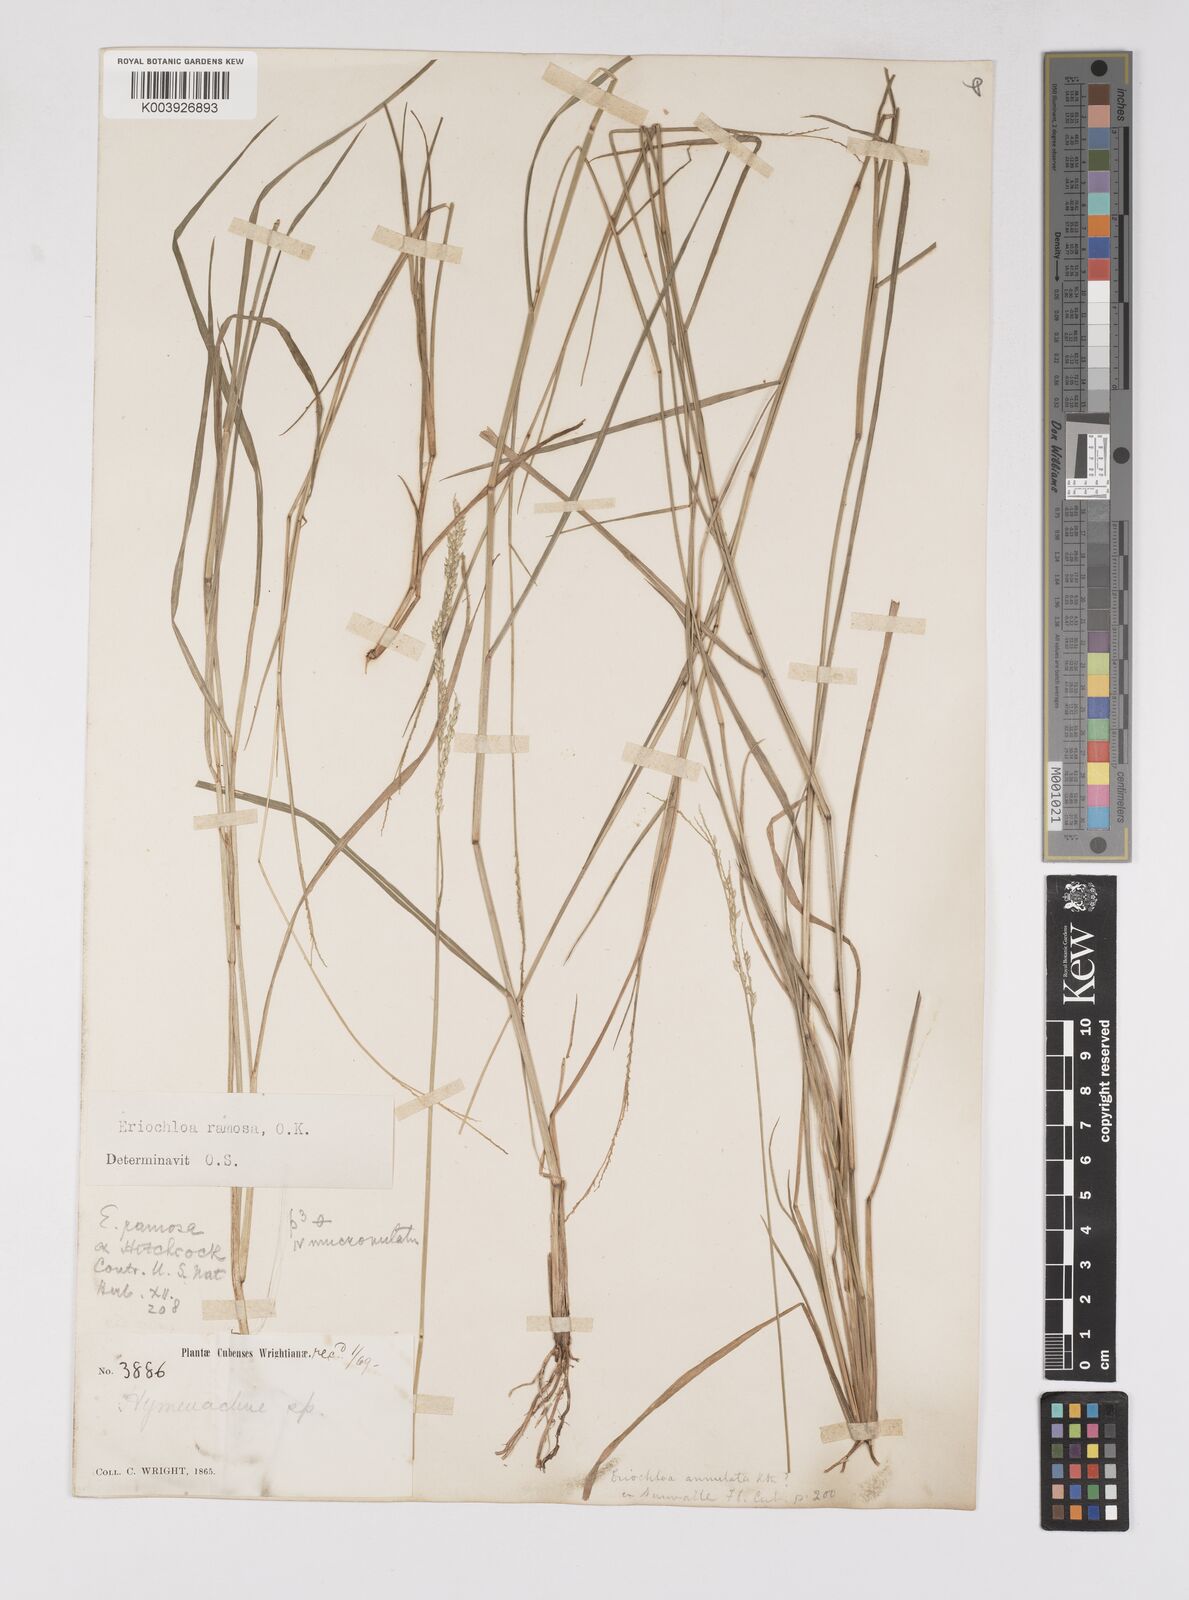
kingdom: Plantae
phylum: Tracheophyta
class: Liliopsida
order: Poales
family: Poaceae
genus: Eriochloa
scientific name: Eriochloa procera
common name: Spring grass
